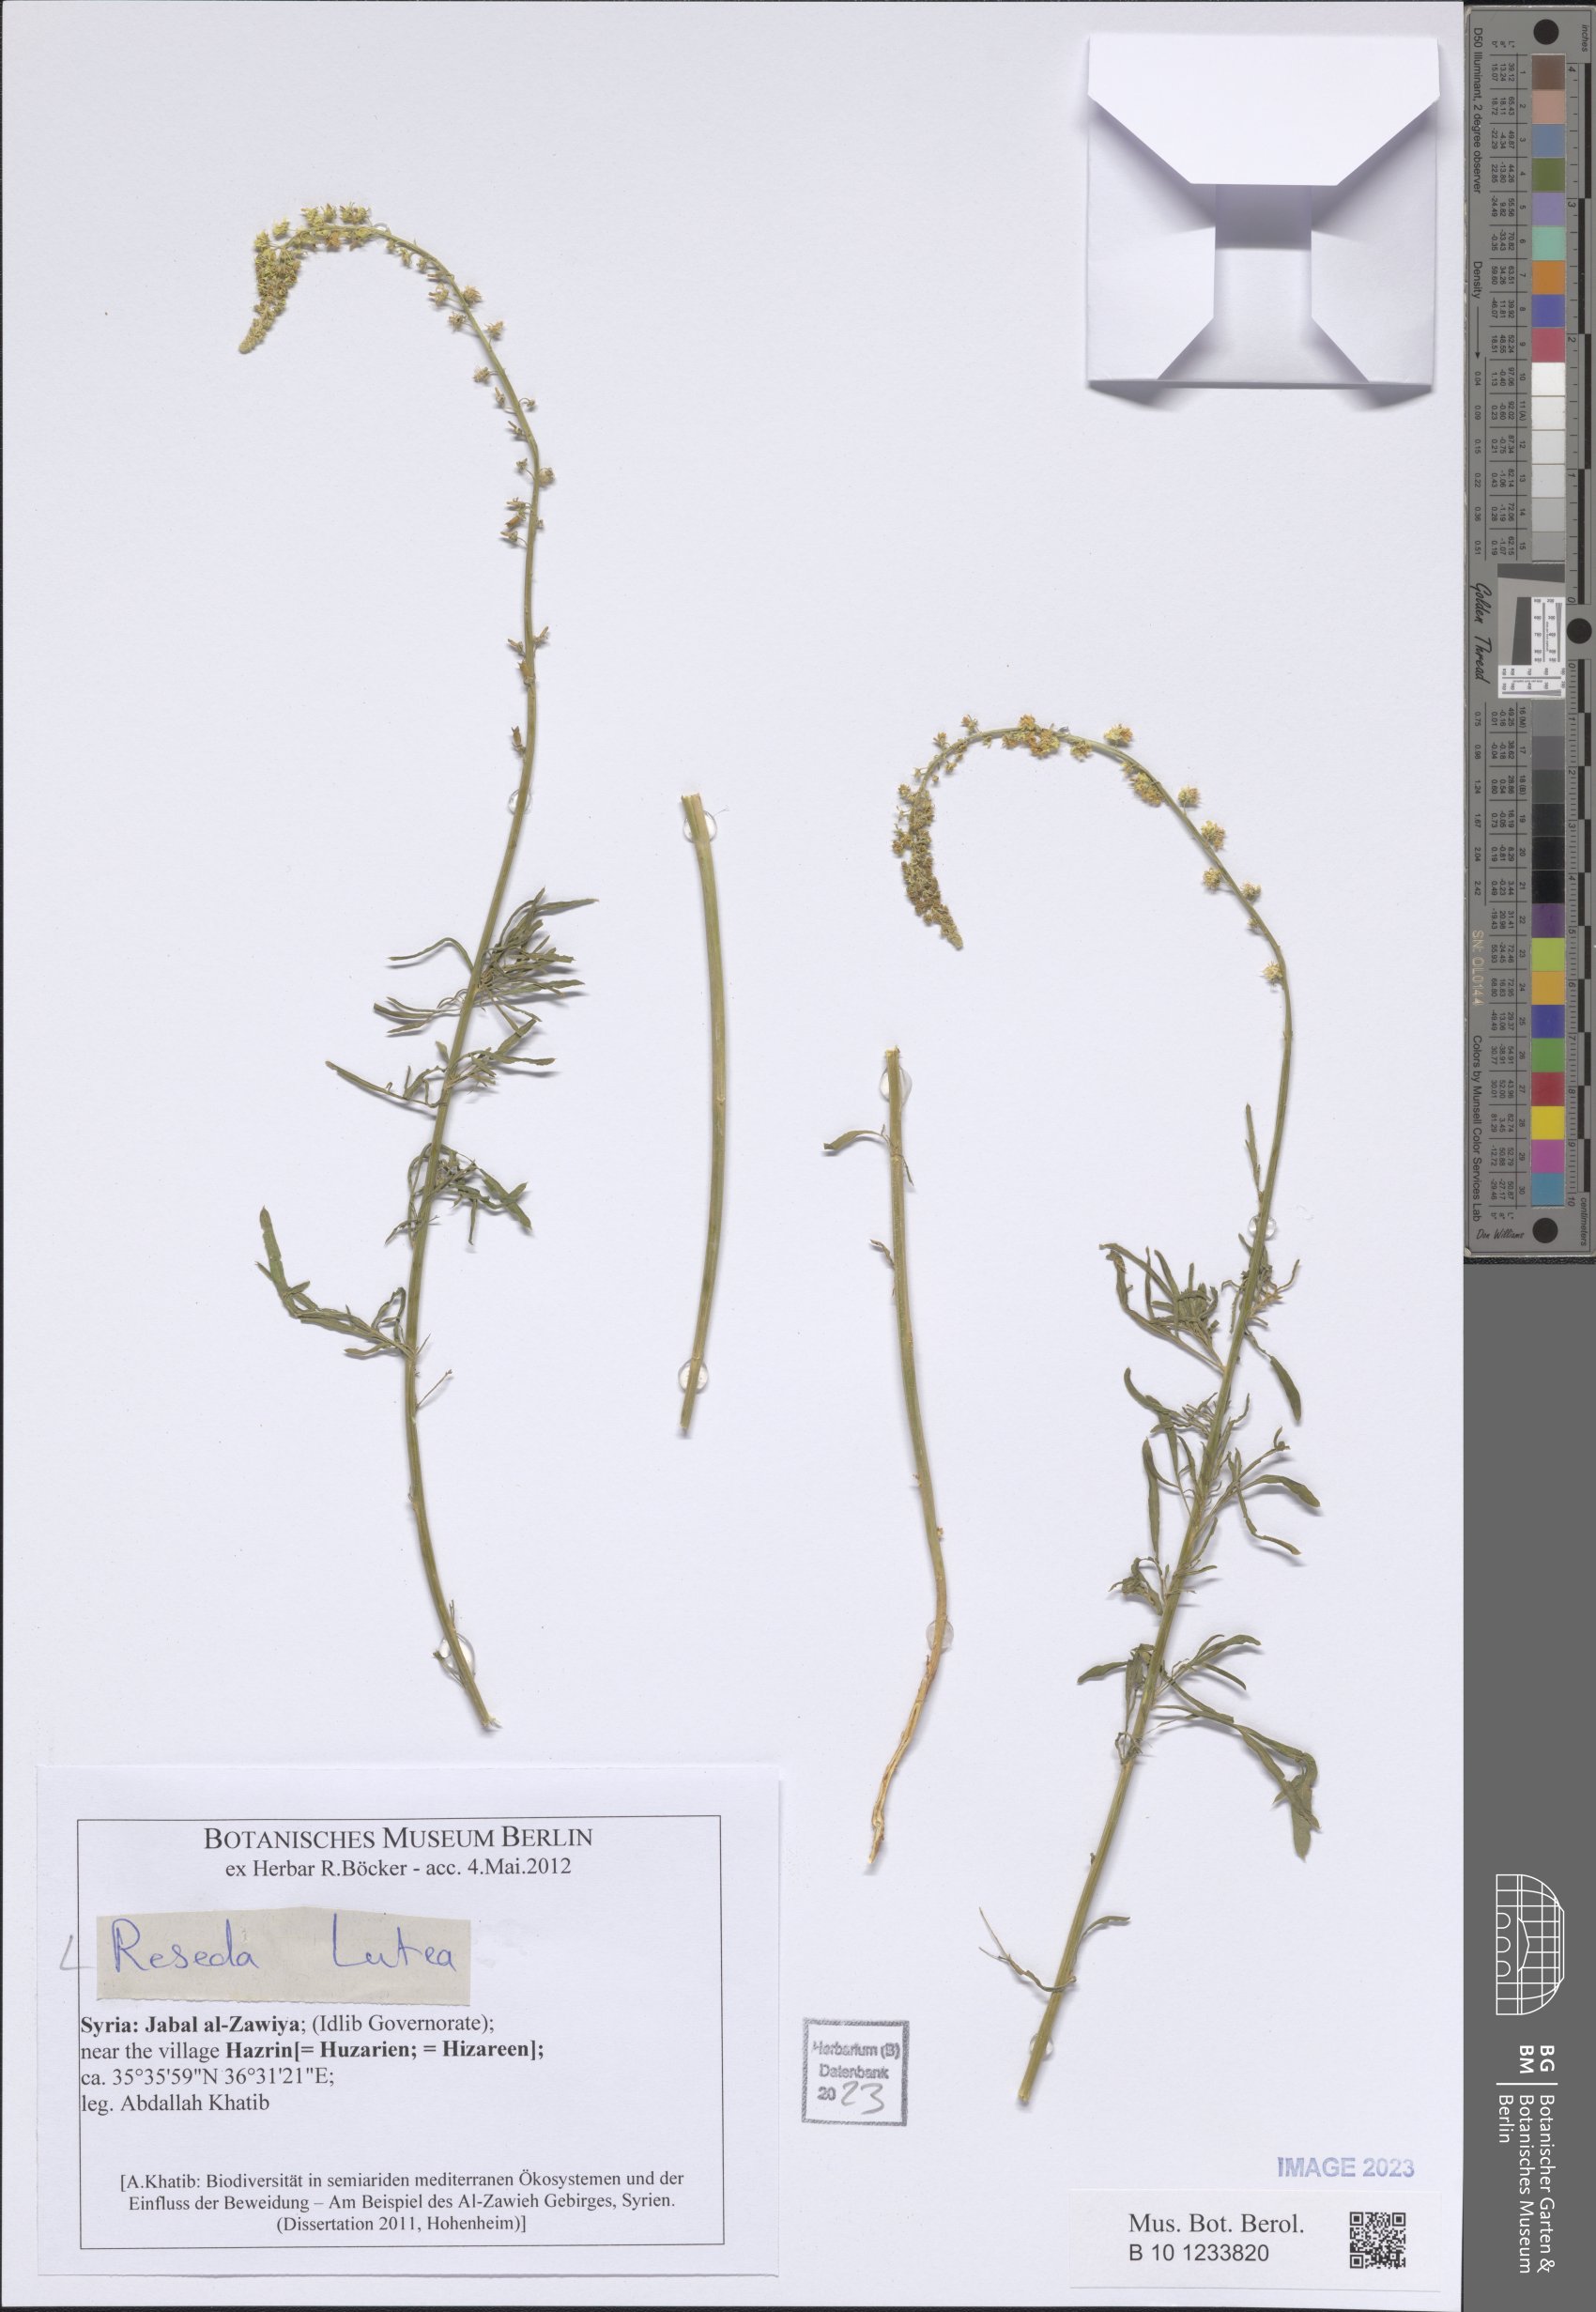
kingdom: Plantae
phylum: Tracheophyta
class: Magnoliopsida
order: Brassicales
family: Resedaceae
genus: Reseda
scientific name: Reseda lutea
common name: Wild mignonette
